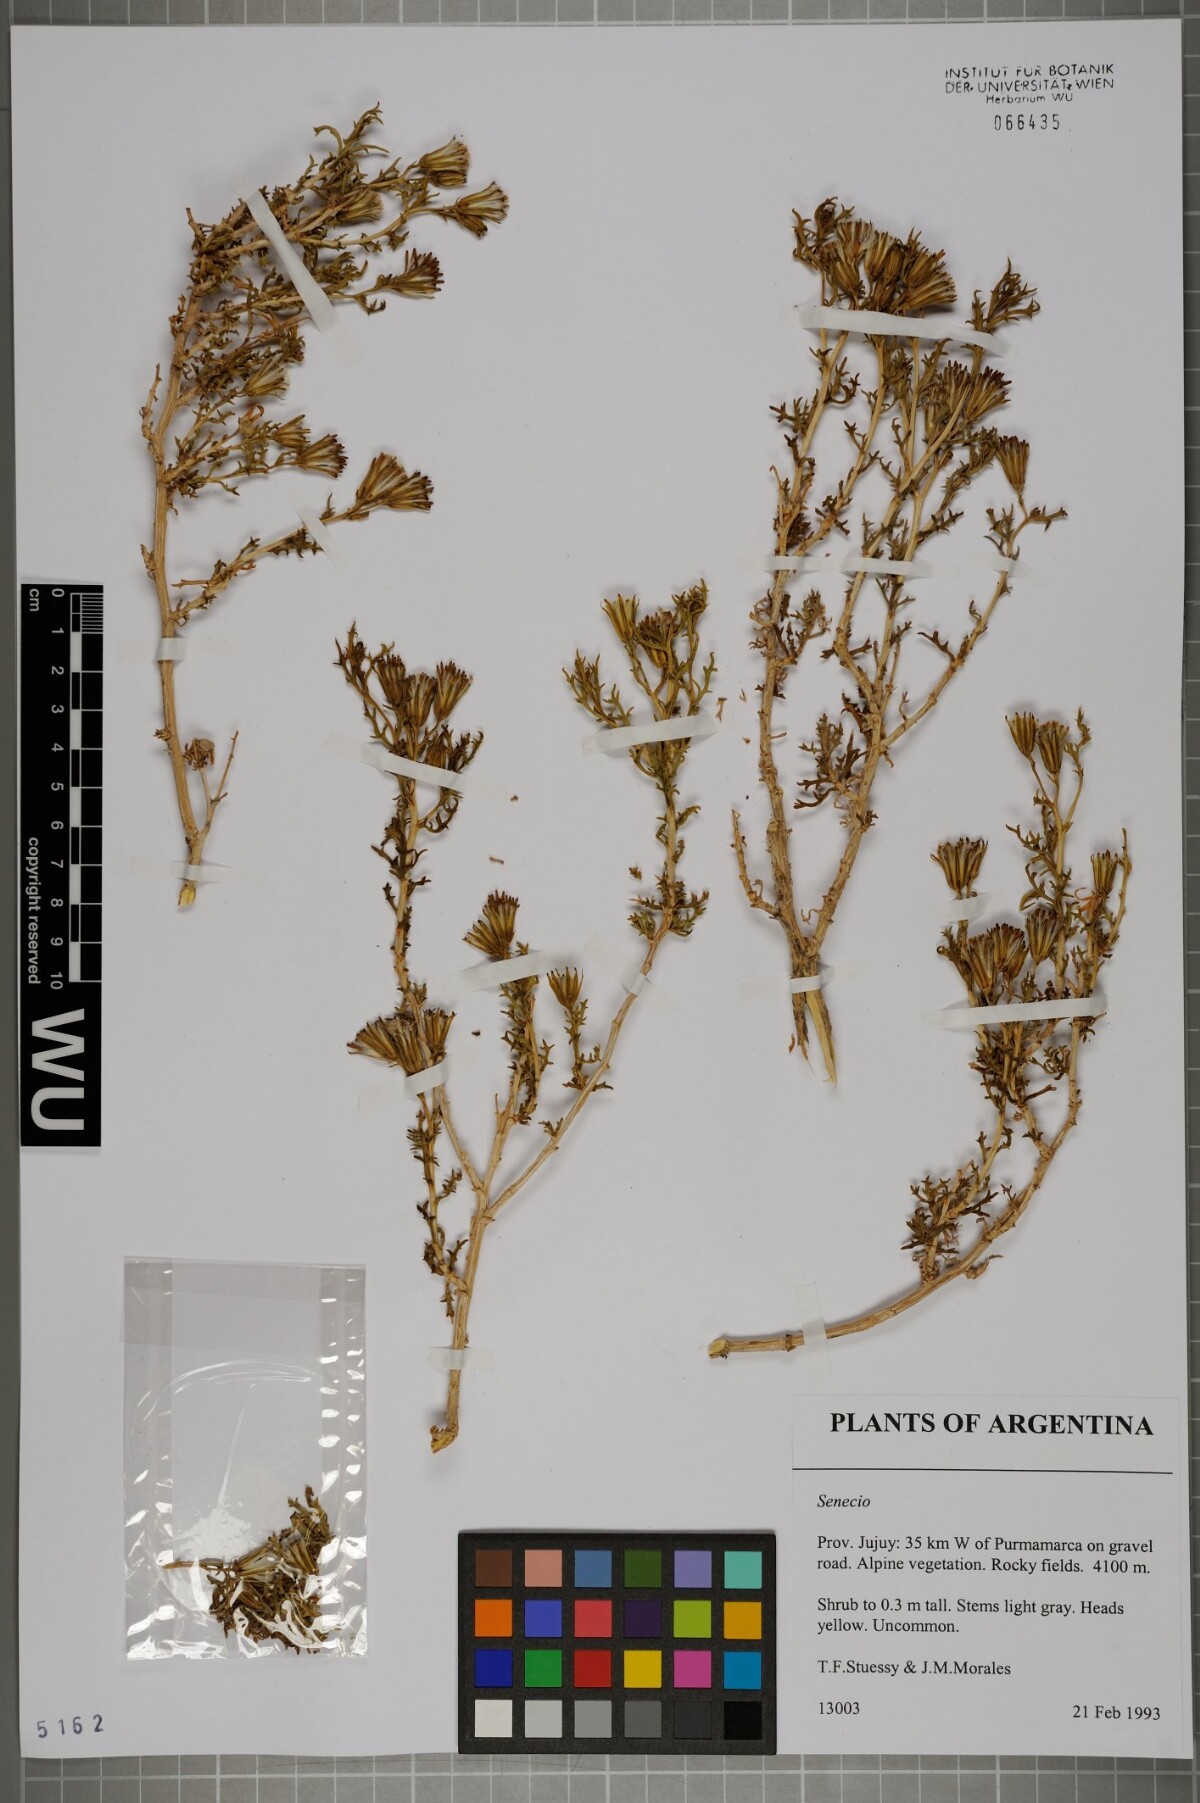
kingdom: Plantae
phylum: Tracheophyta
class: Magnoliopsida
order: Asterales
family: Asteraceae
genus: Senecio
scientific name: Senecio
